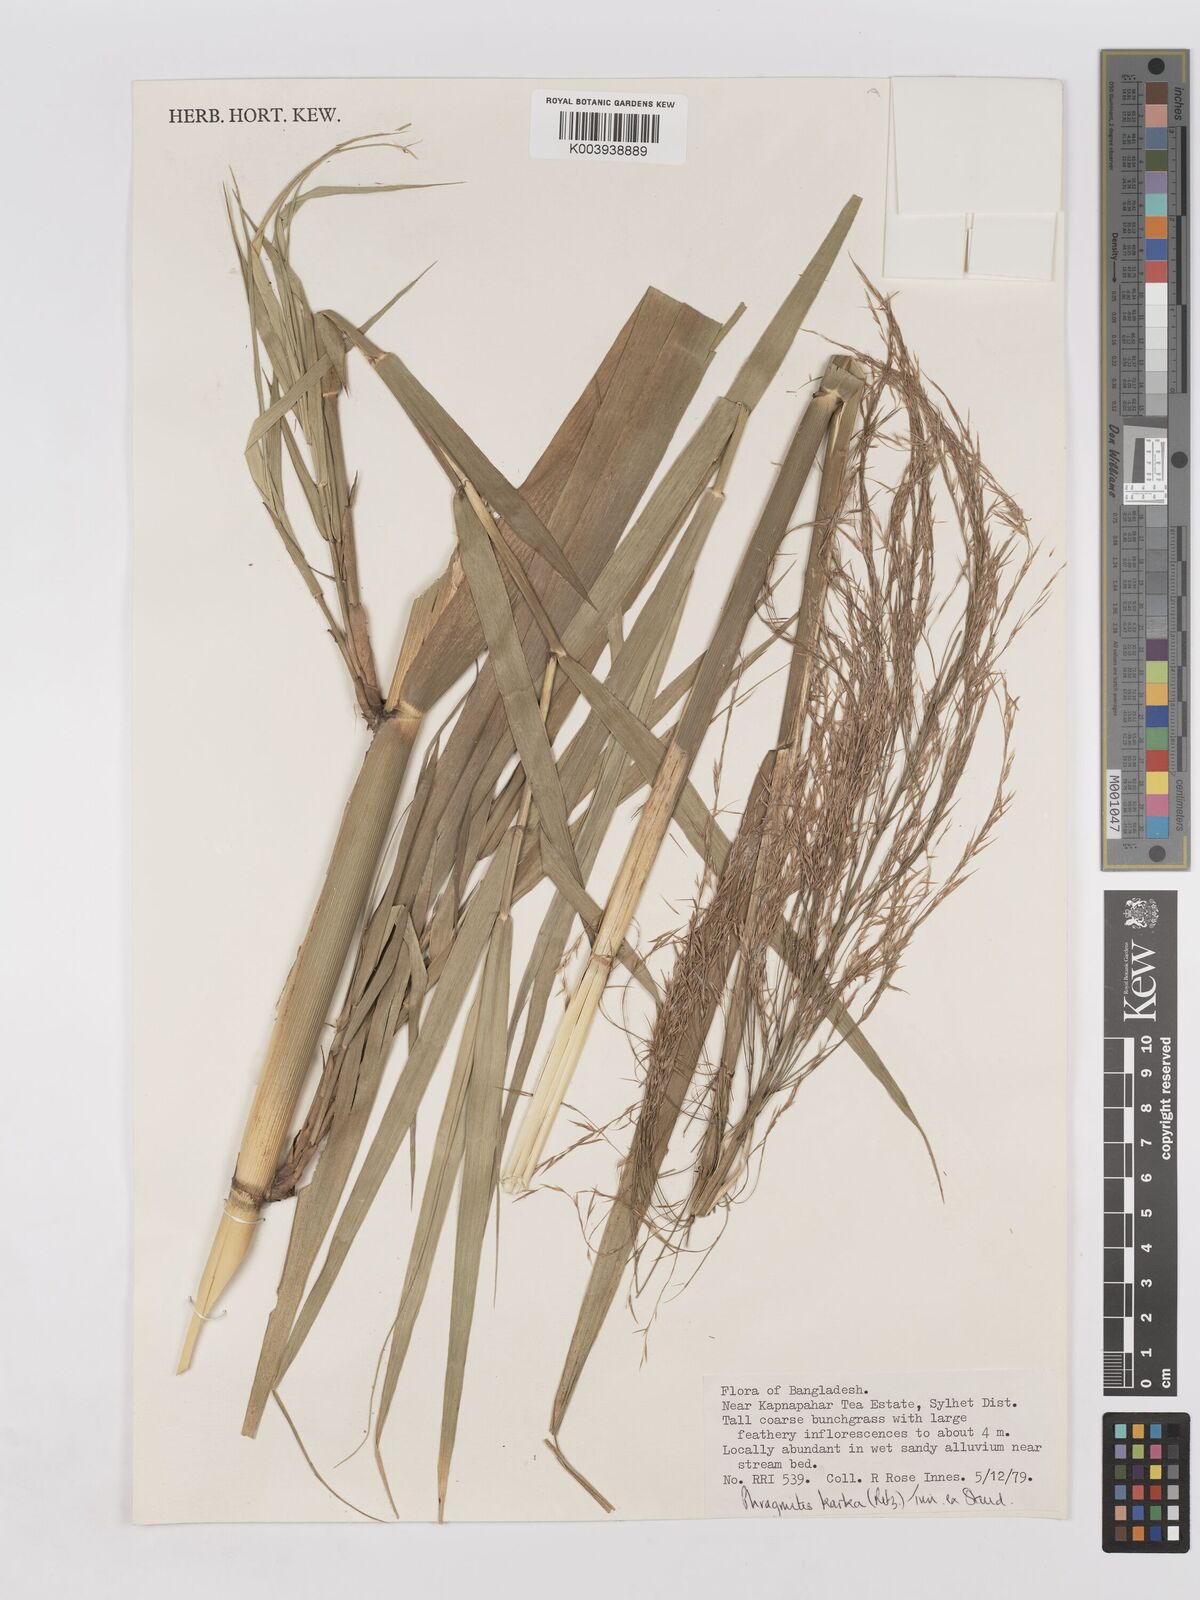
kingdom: Plantae
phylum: Tracheophyta
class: Liliopsida
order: Poales
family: Poaceae
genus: Phragmites
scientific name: Phragmites karka
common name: Tropical reed
